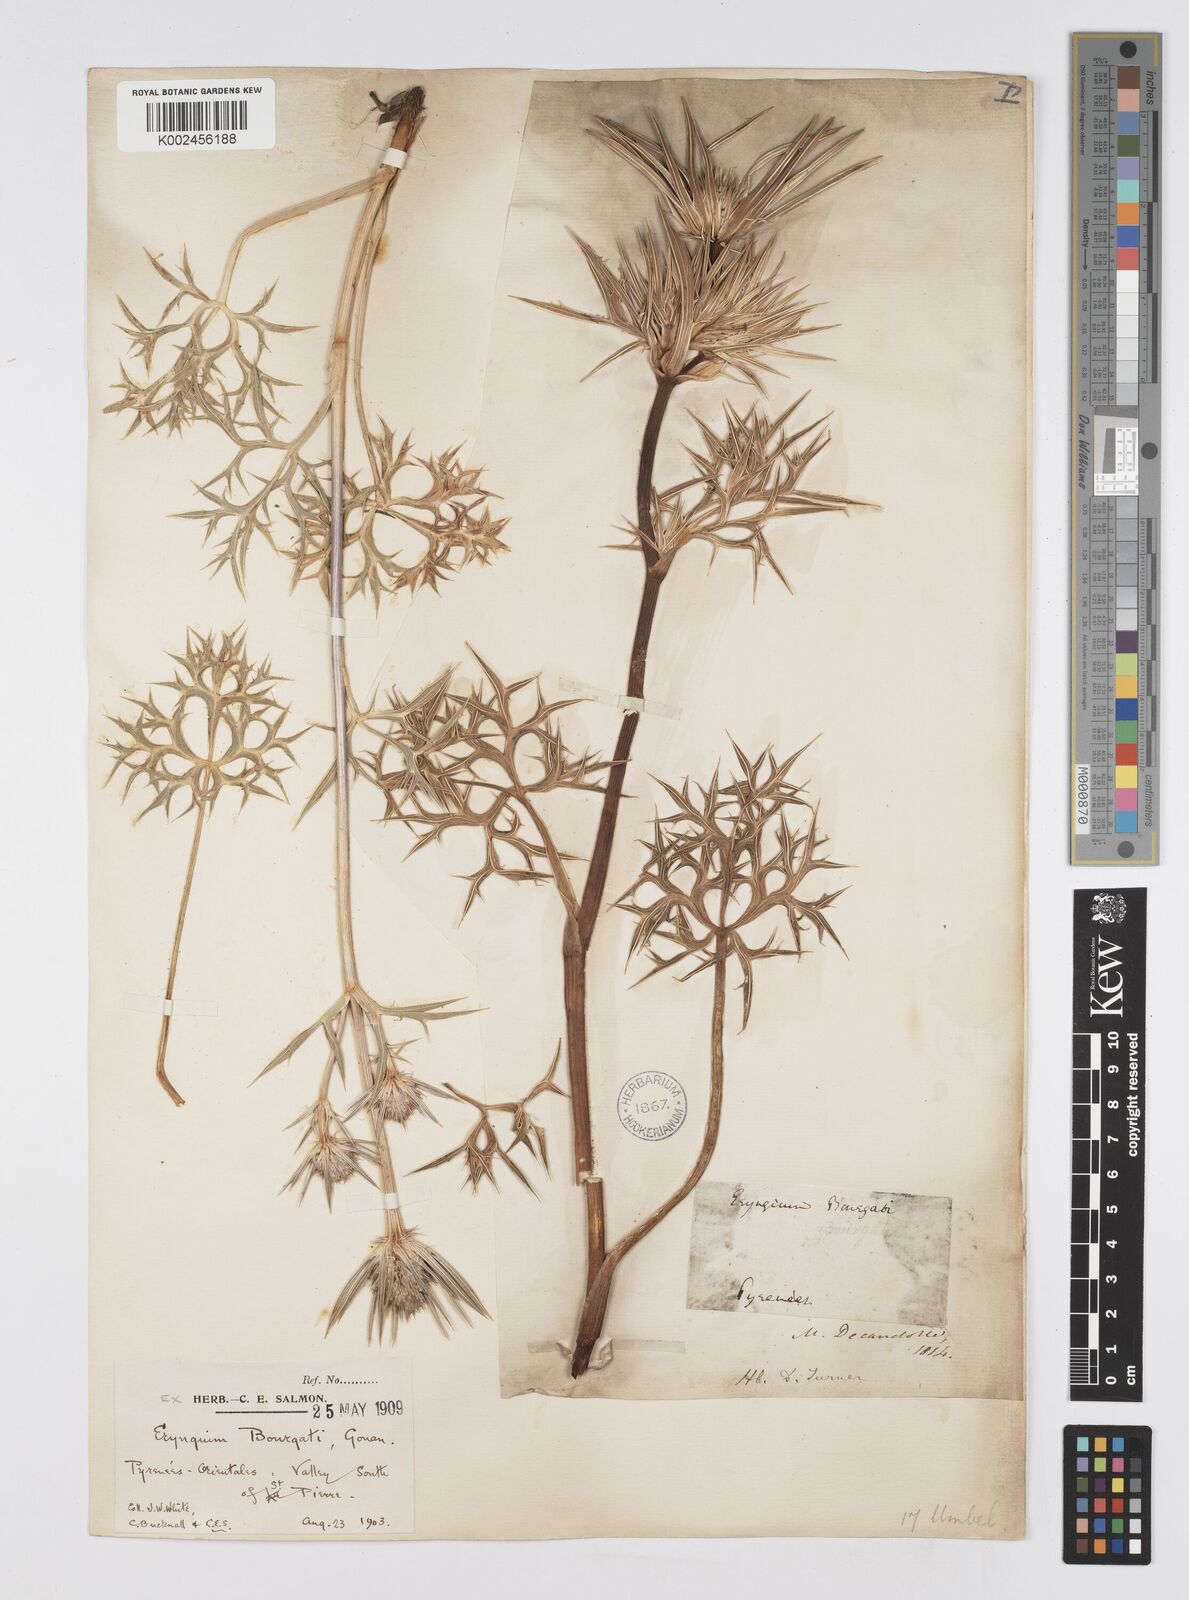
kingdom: Plantae
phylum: Tracheophyta
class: Magnoliopsida
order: Apiales
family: Apiaceae
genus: Eryngium
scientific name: Eryngium bourgatii
